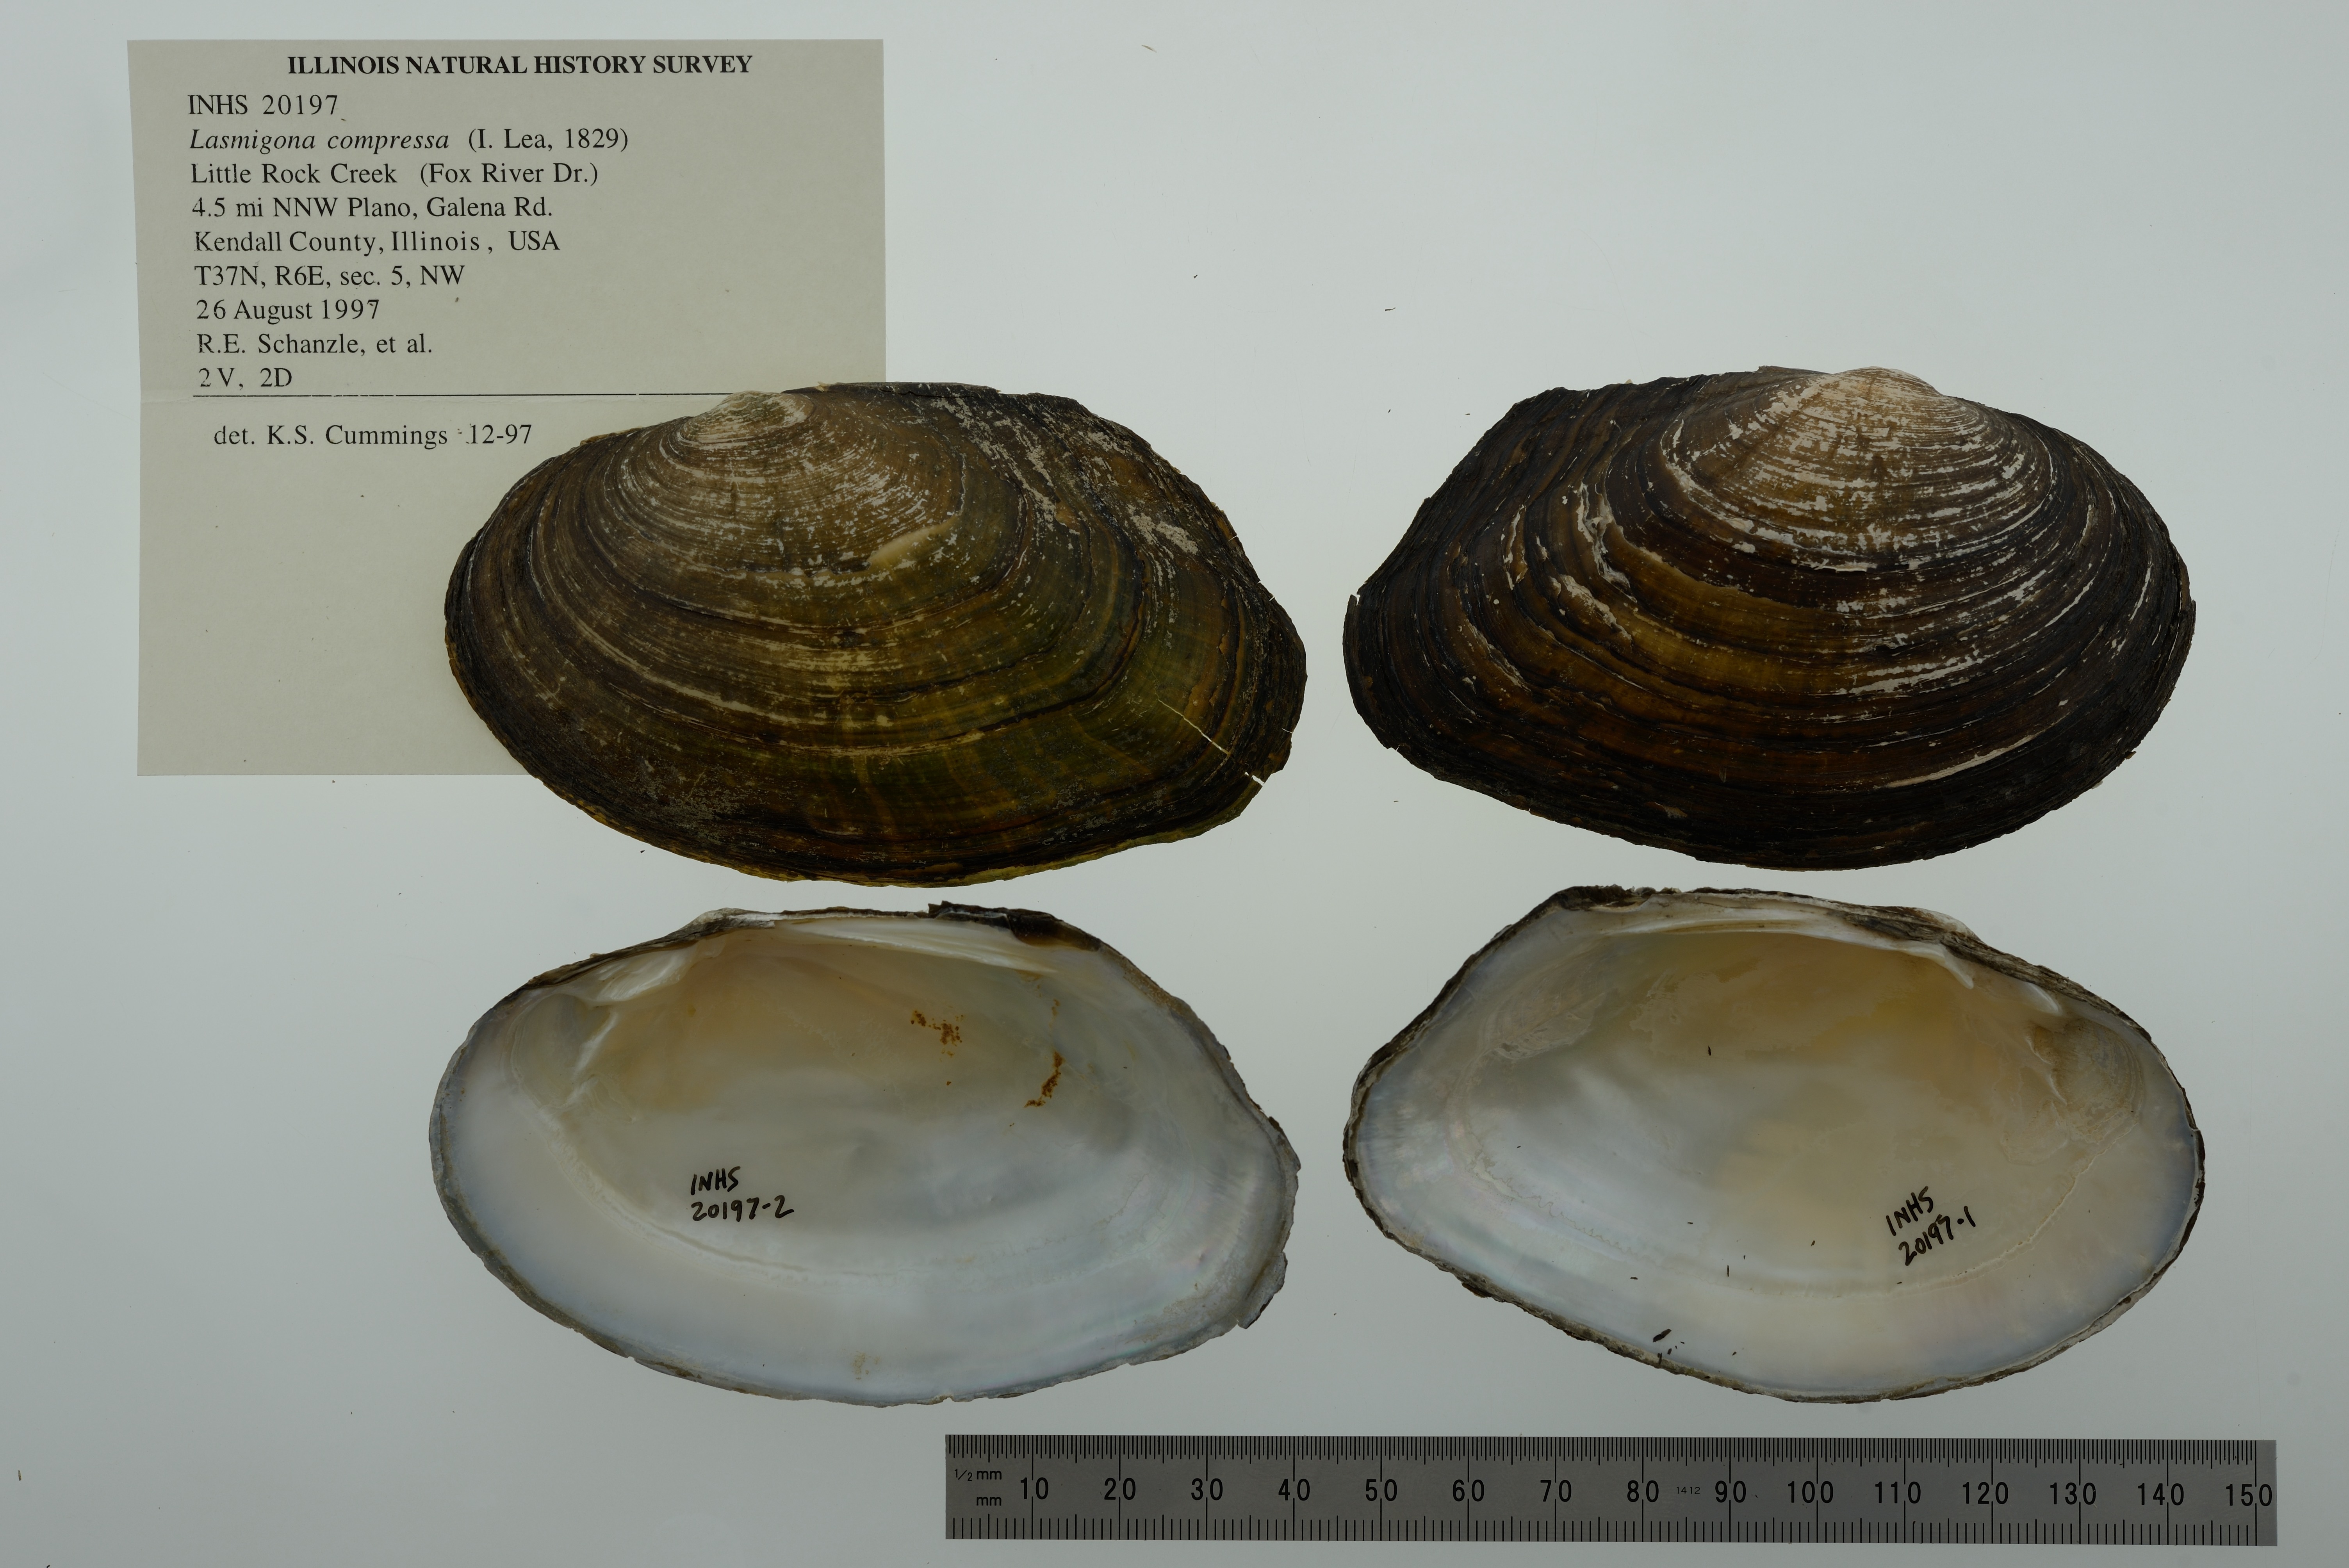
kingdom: Animalia
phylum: Mollusca
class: Bivalvia
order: Unionida
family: Unionidae
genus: Lasmigona
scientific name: Lasmigona compressa
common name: Creek heelsplitter
